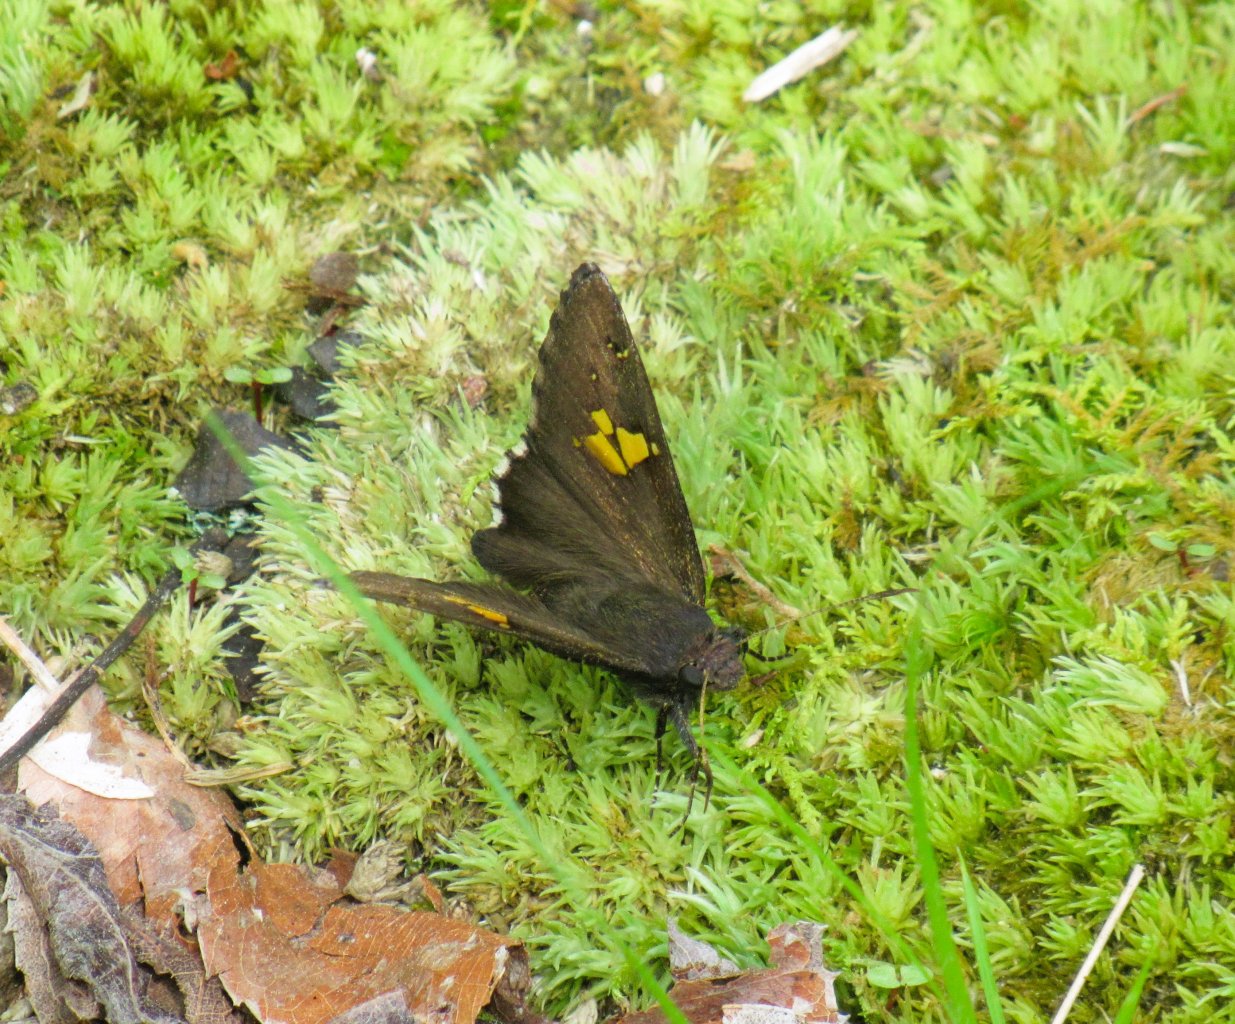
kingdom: Animalia
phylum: Arthropoda
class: Insecta
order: Lepidoptera
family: Hesperiidae
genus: Achalarus
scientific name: Achalarus lyciades
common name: Hoary Edge
